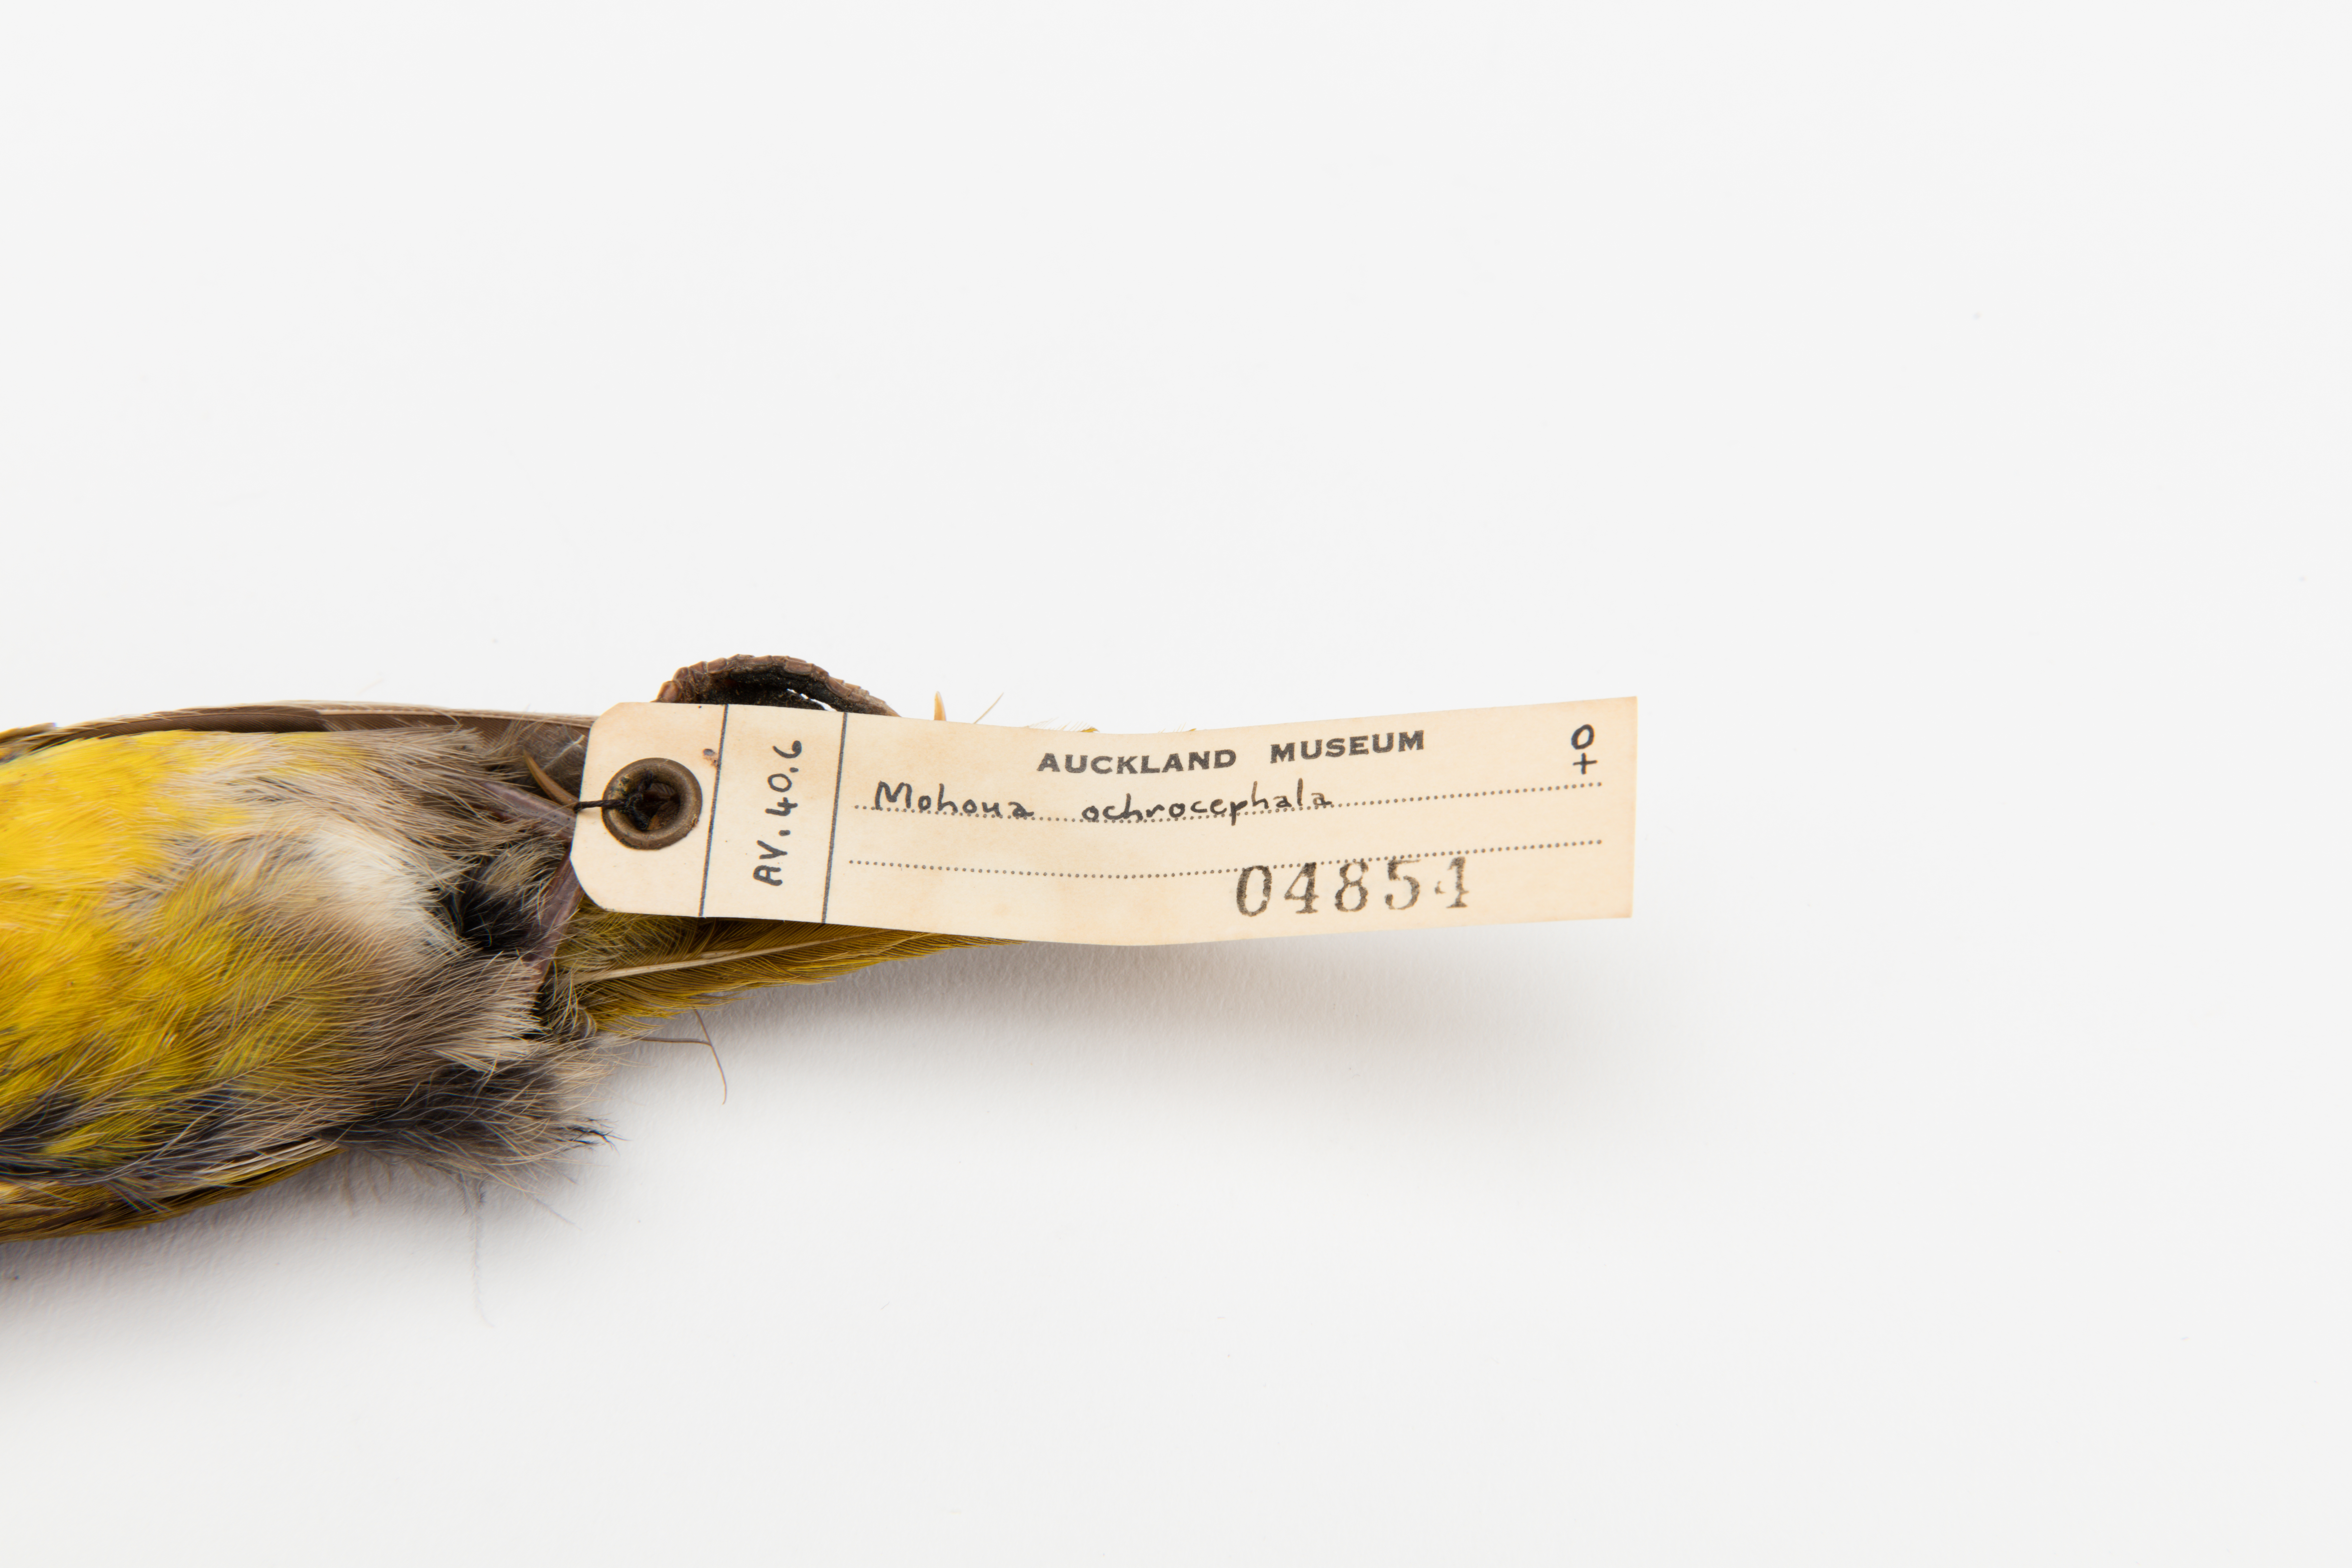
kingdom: Animalia
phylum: Chordata
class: Aves
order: Passeriformes
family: Acanthizidae
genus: Mohoua
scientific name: Mohoua ochrocephala
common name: Yellowhead
